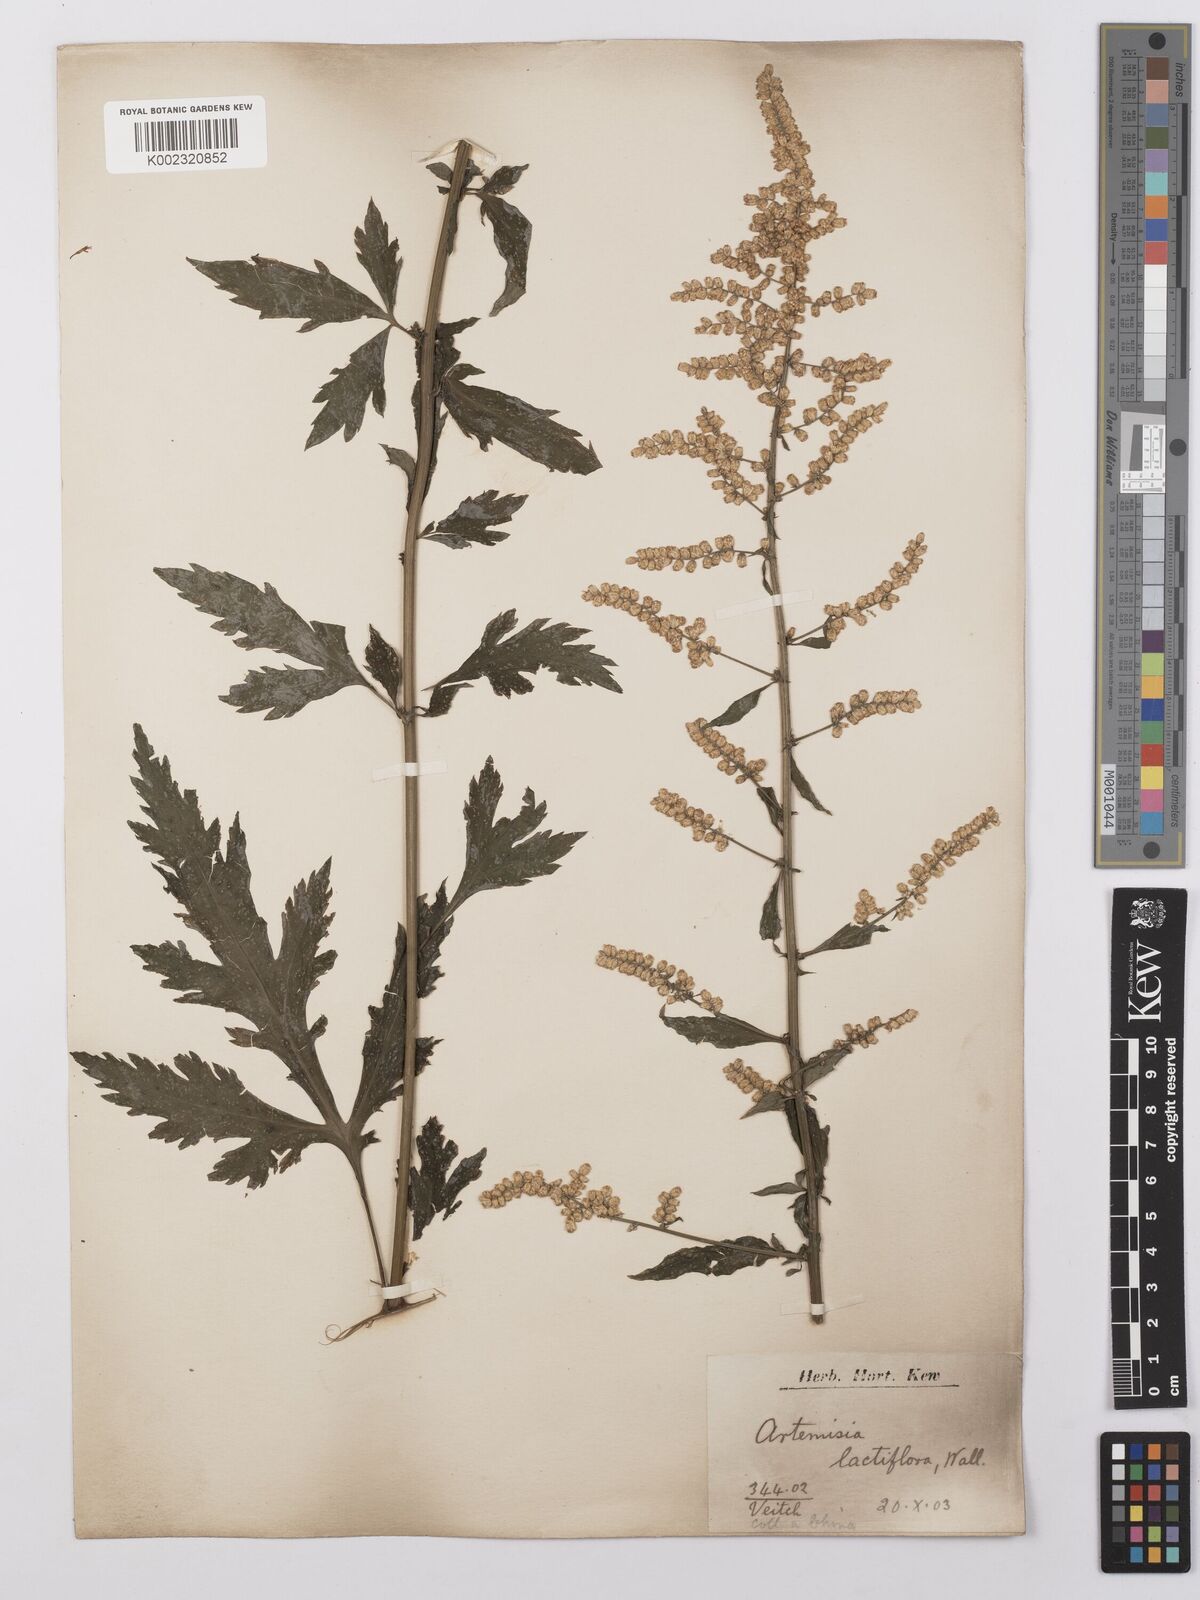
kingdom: Plantae
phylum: Tracheophyta
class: Magnoliopsida
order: Asterales
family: Asteraceae
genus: Artemisia
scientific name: Artemisia lactiflora
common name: White mugwort
